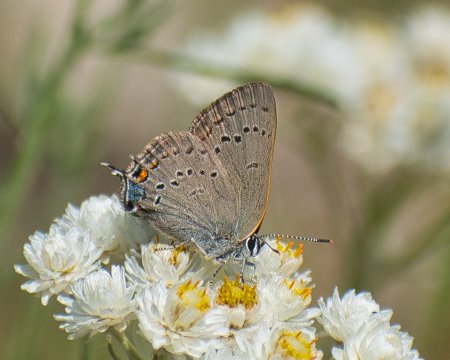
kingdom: Animalia
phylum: Arthropoda
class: Insecta
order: Lepidoptera
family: Lycaenidae
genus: Strymon
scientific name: Strymon sylvinus
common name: Sylvan Hairstreak
